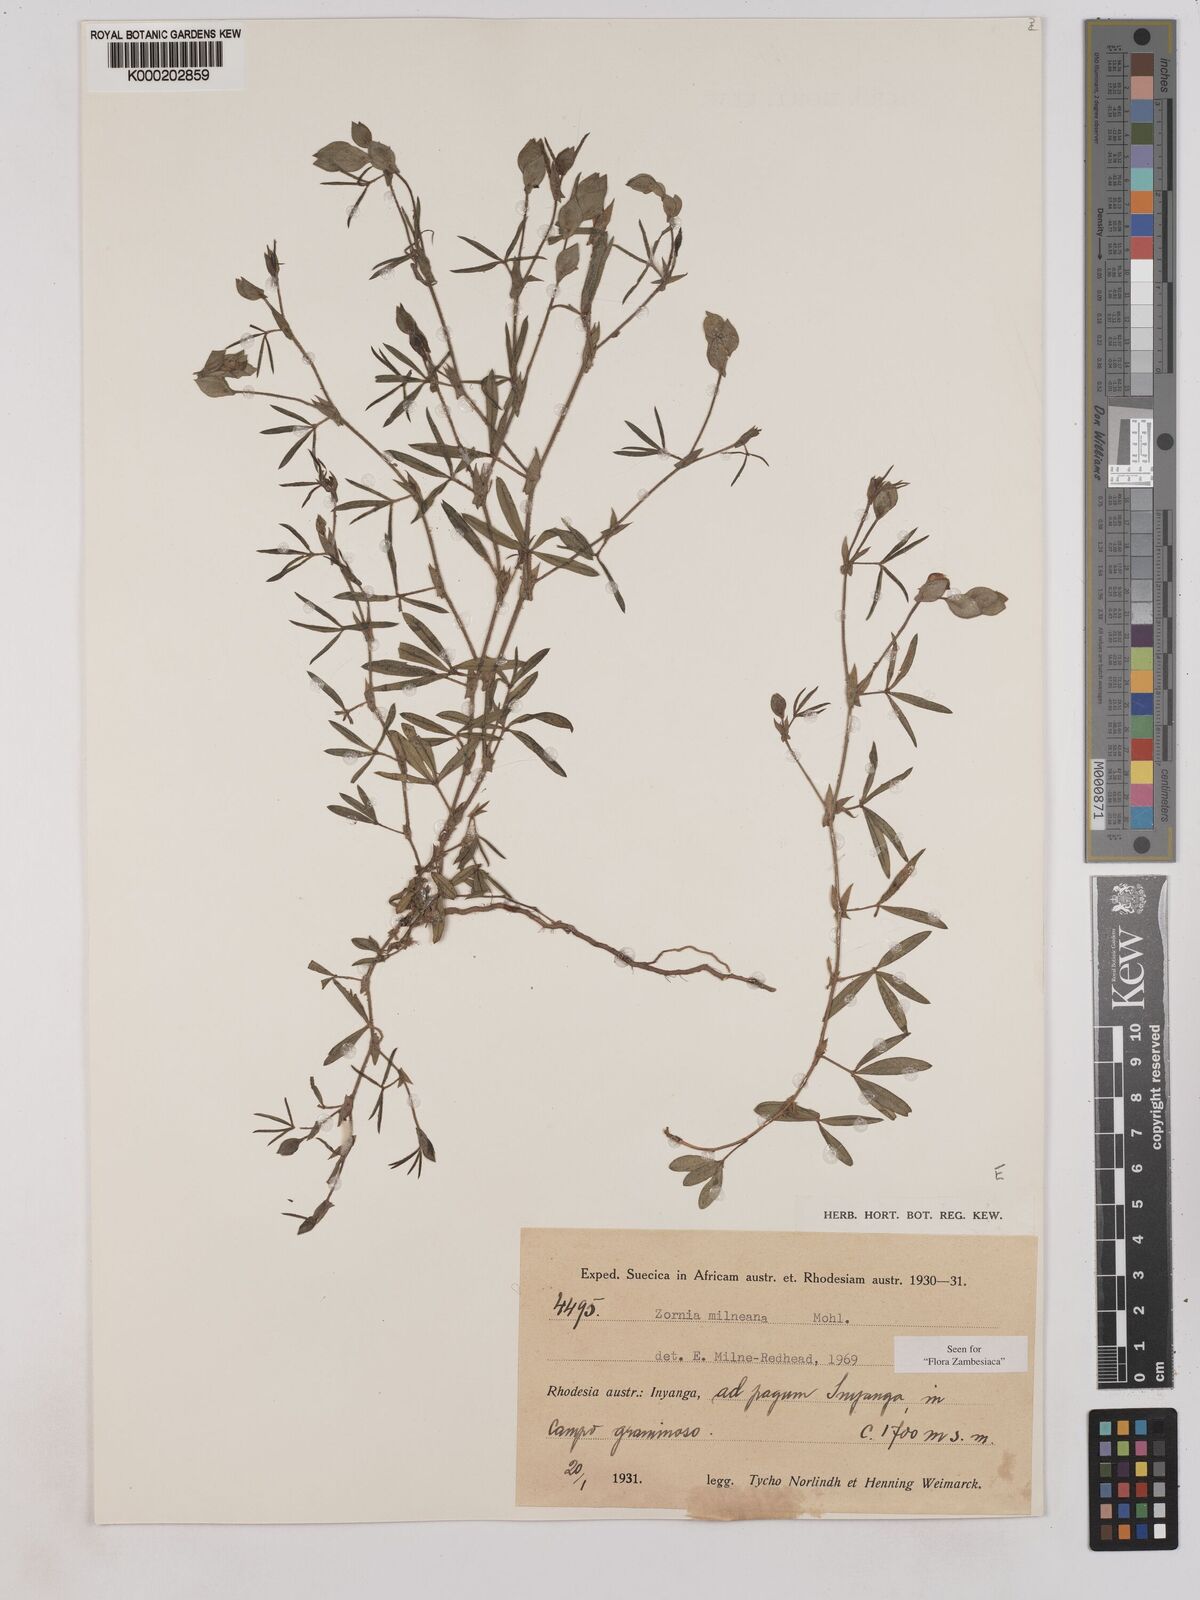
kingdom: Plantae
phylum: Tracheophyta
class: Magnoliopsida
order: Fabales
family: Fabaceae
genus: Zornia
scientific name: Zornia milneana
